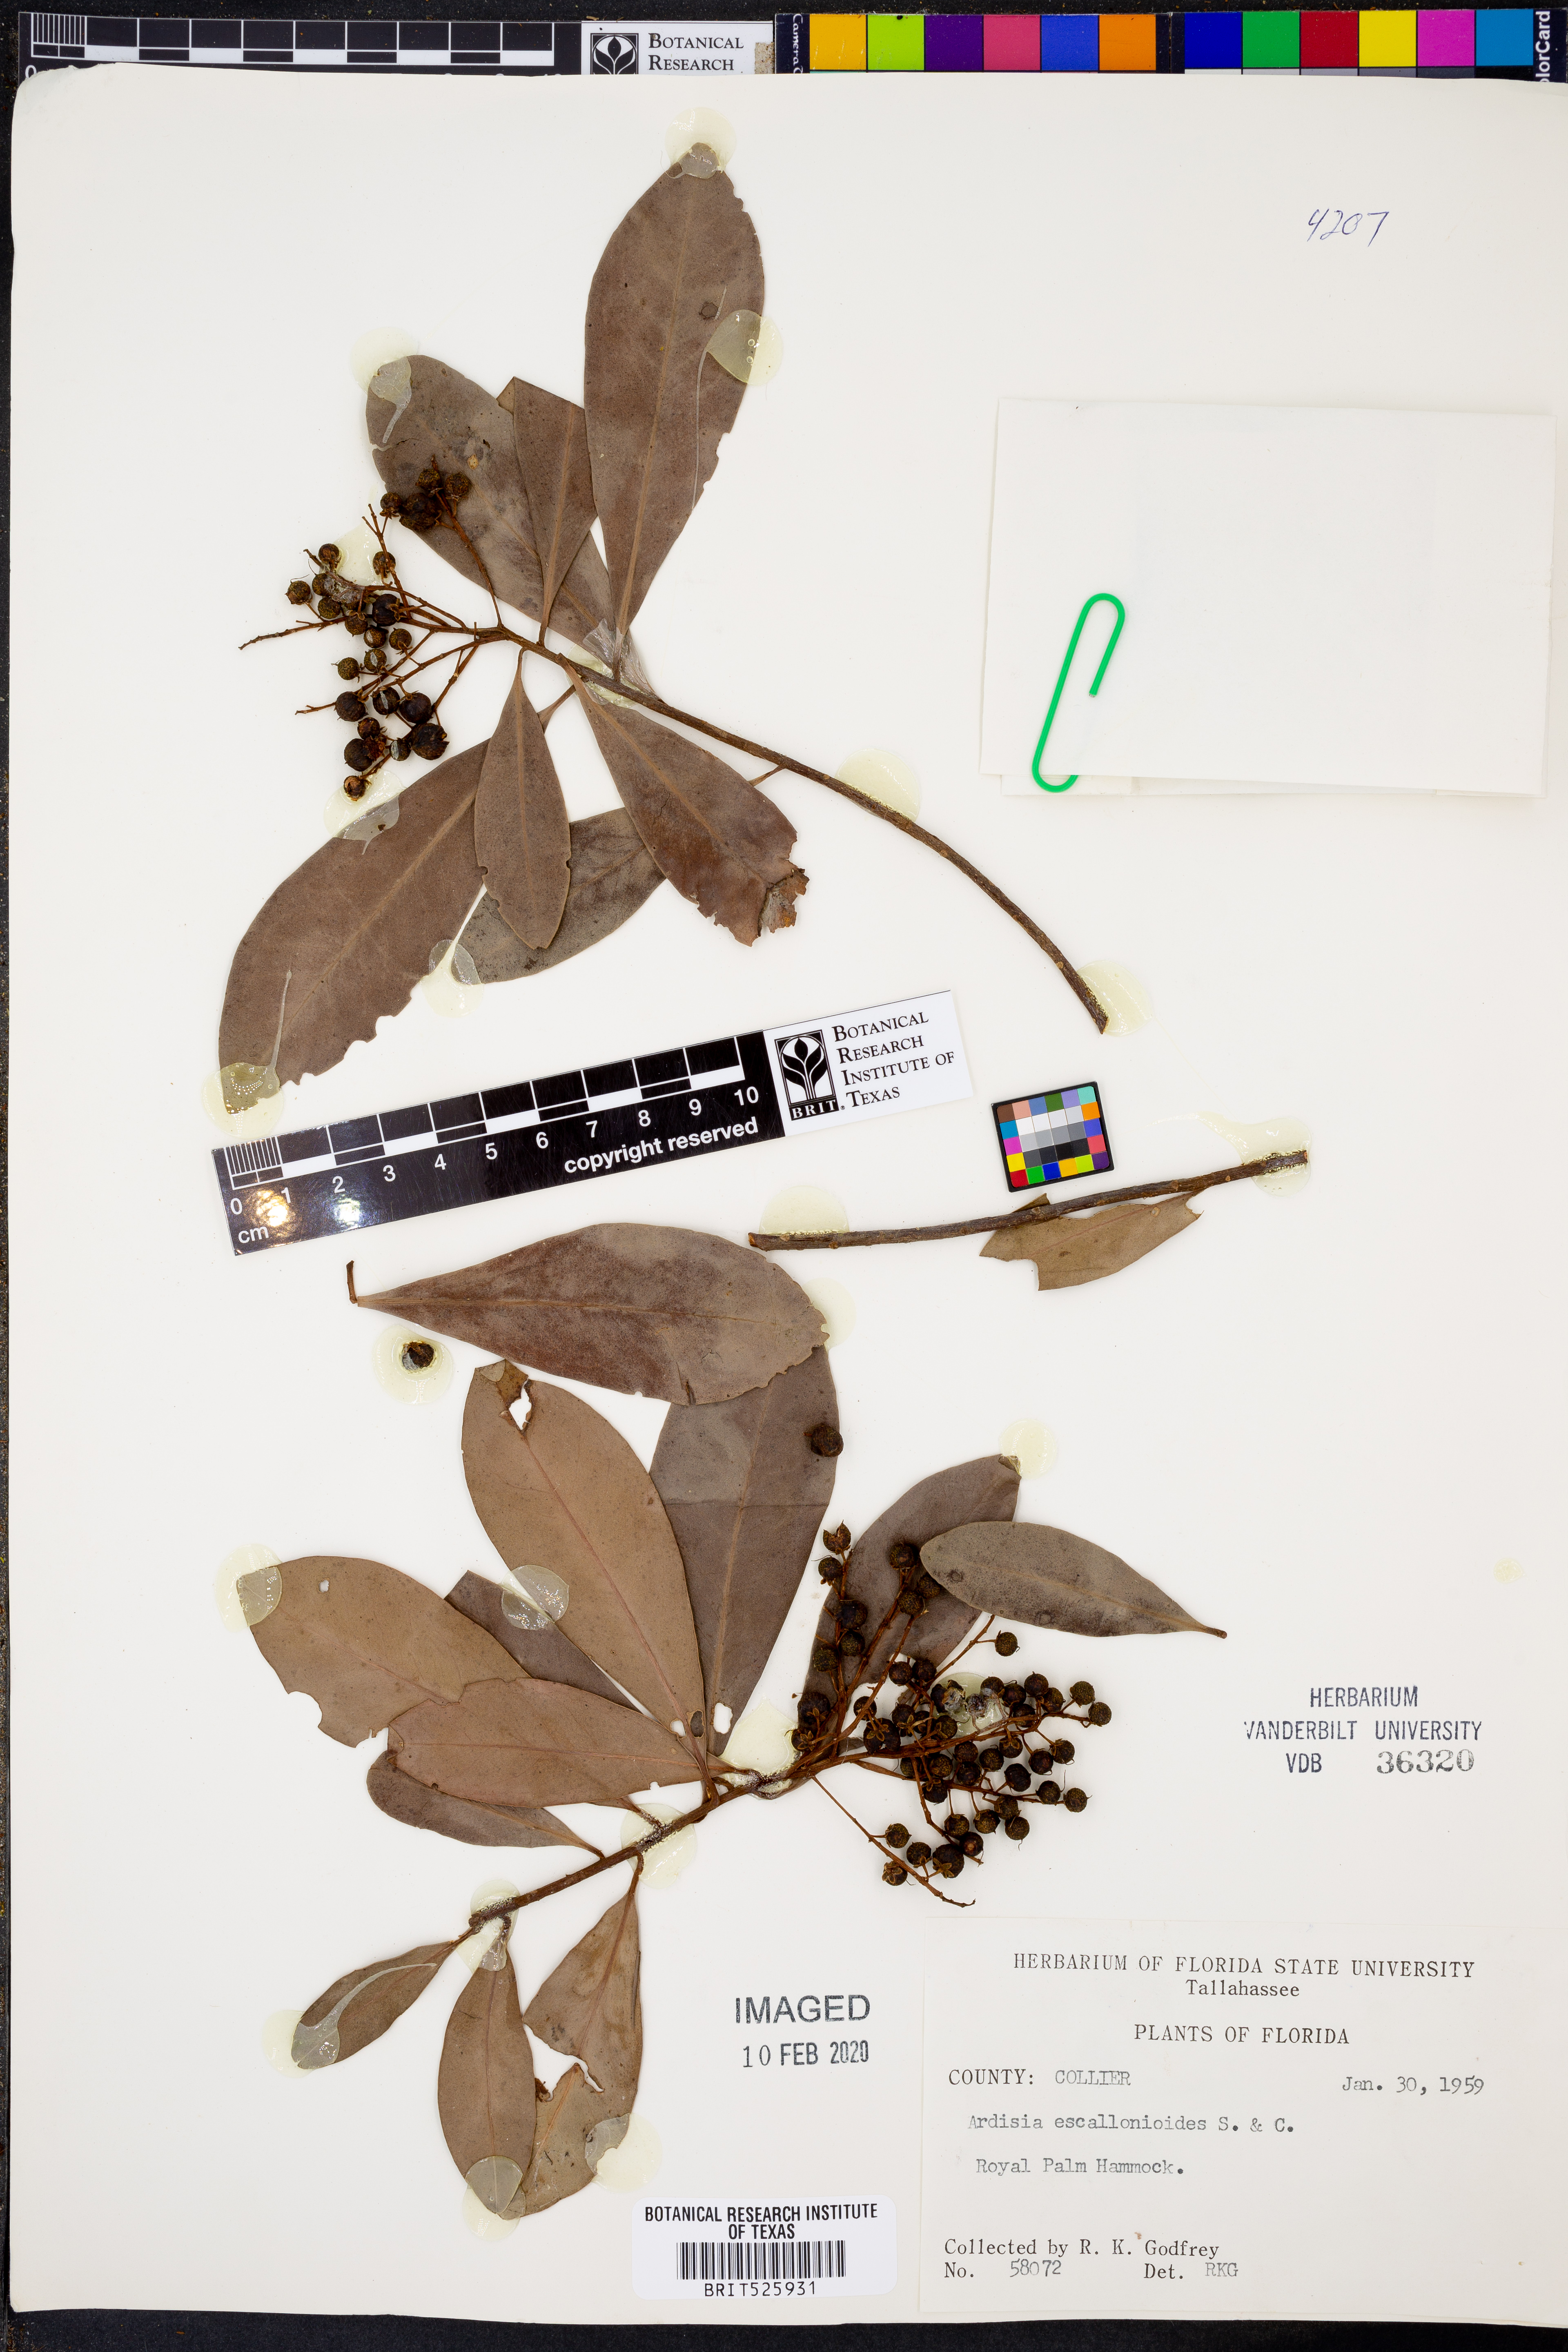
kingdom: Plantae
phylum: Tracheophyta
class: Magnoliopsida
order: Ericales
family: Primulaceae
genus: Ardisia
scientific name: Ardisia escallonioides
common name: Island marlberry
